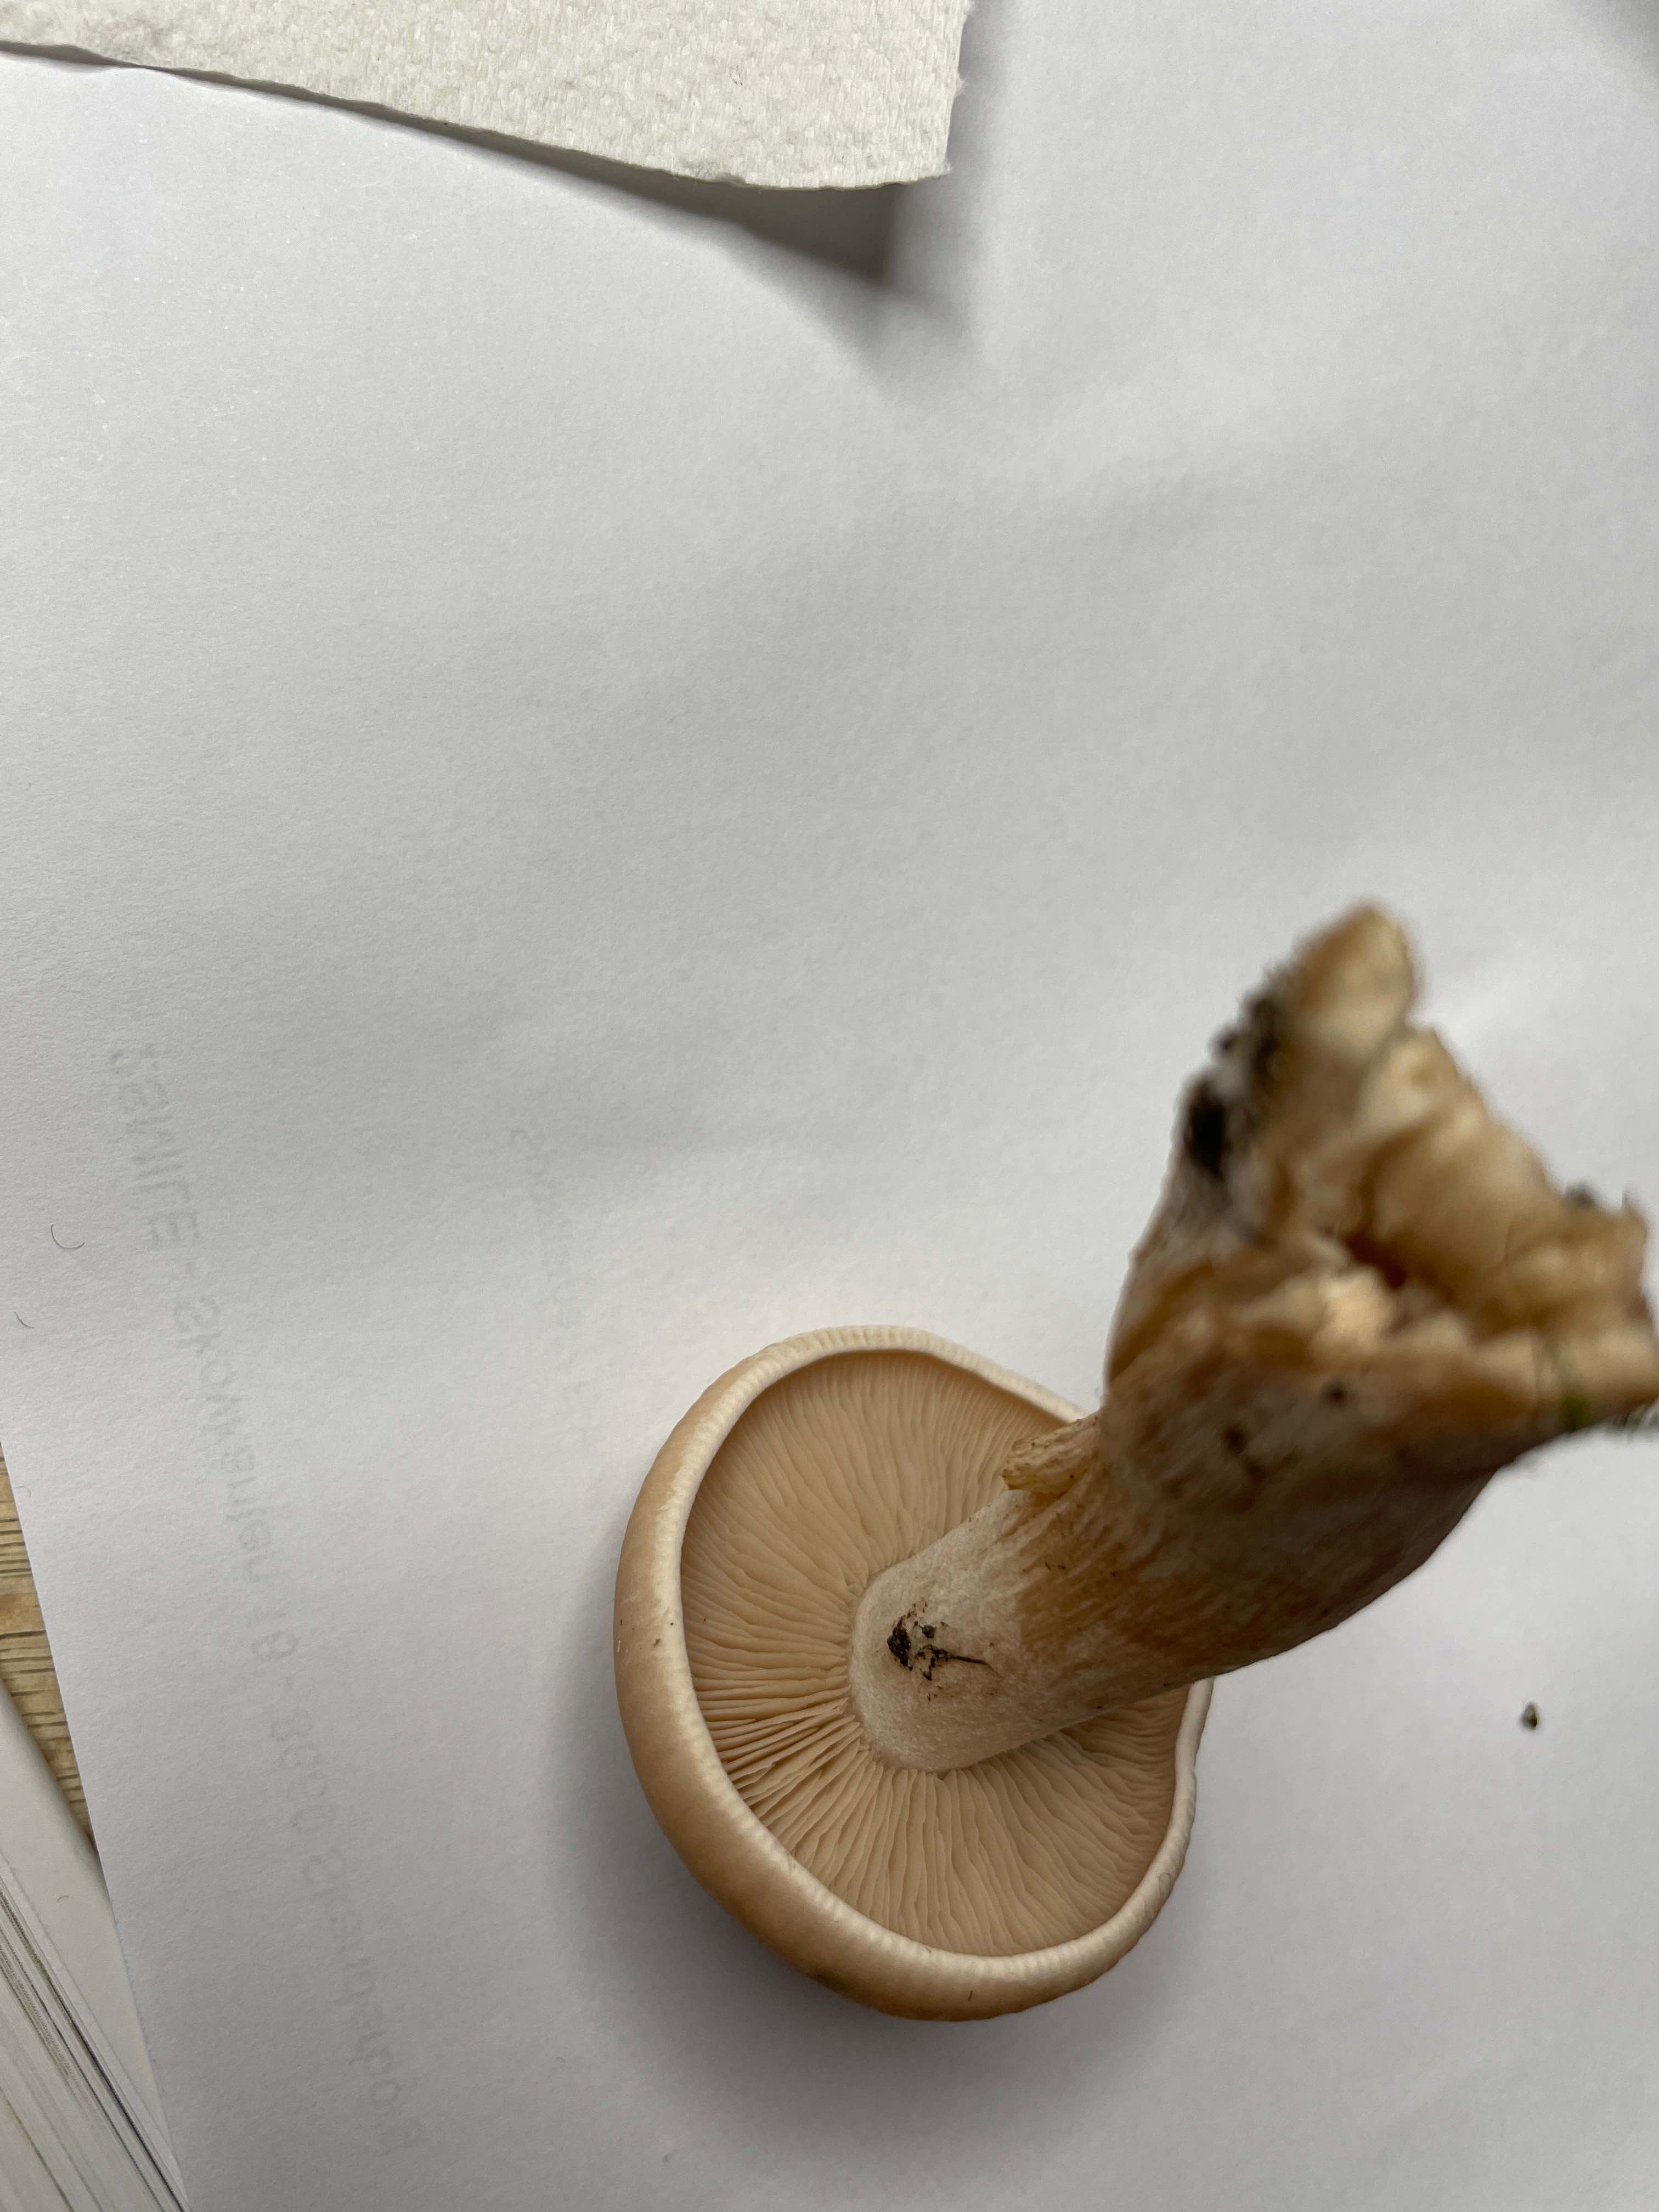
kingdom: Fungi
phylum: Basidiomycota
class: Agaricomycetes
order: Agaricales
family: Tricholomataceae
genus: Lepista
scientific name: Lepista irina
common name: violduftende hekseringshat
